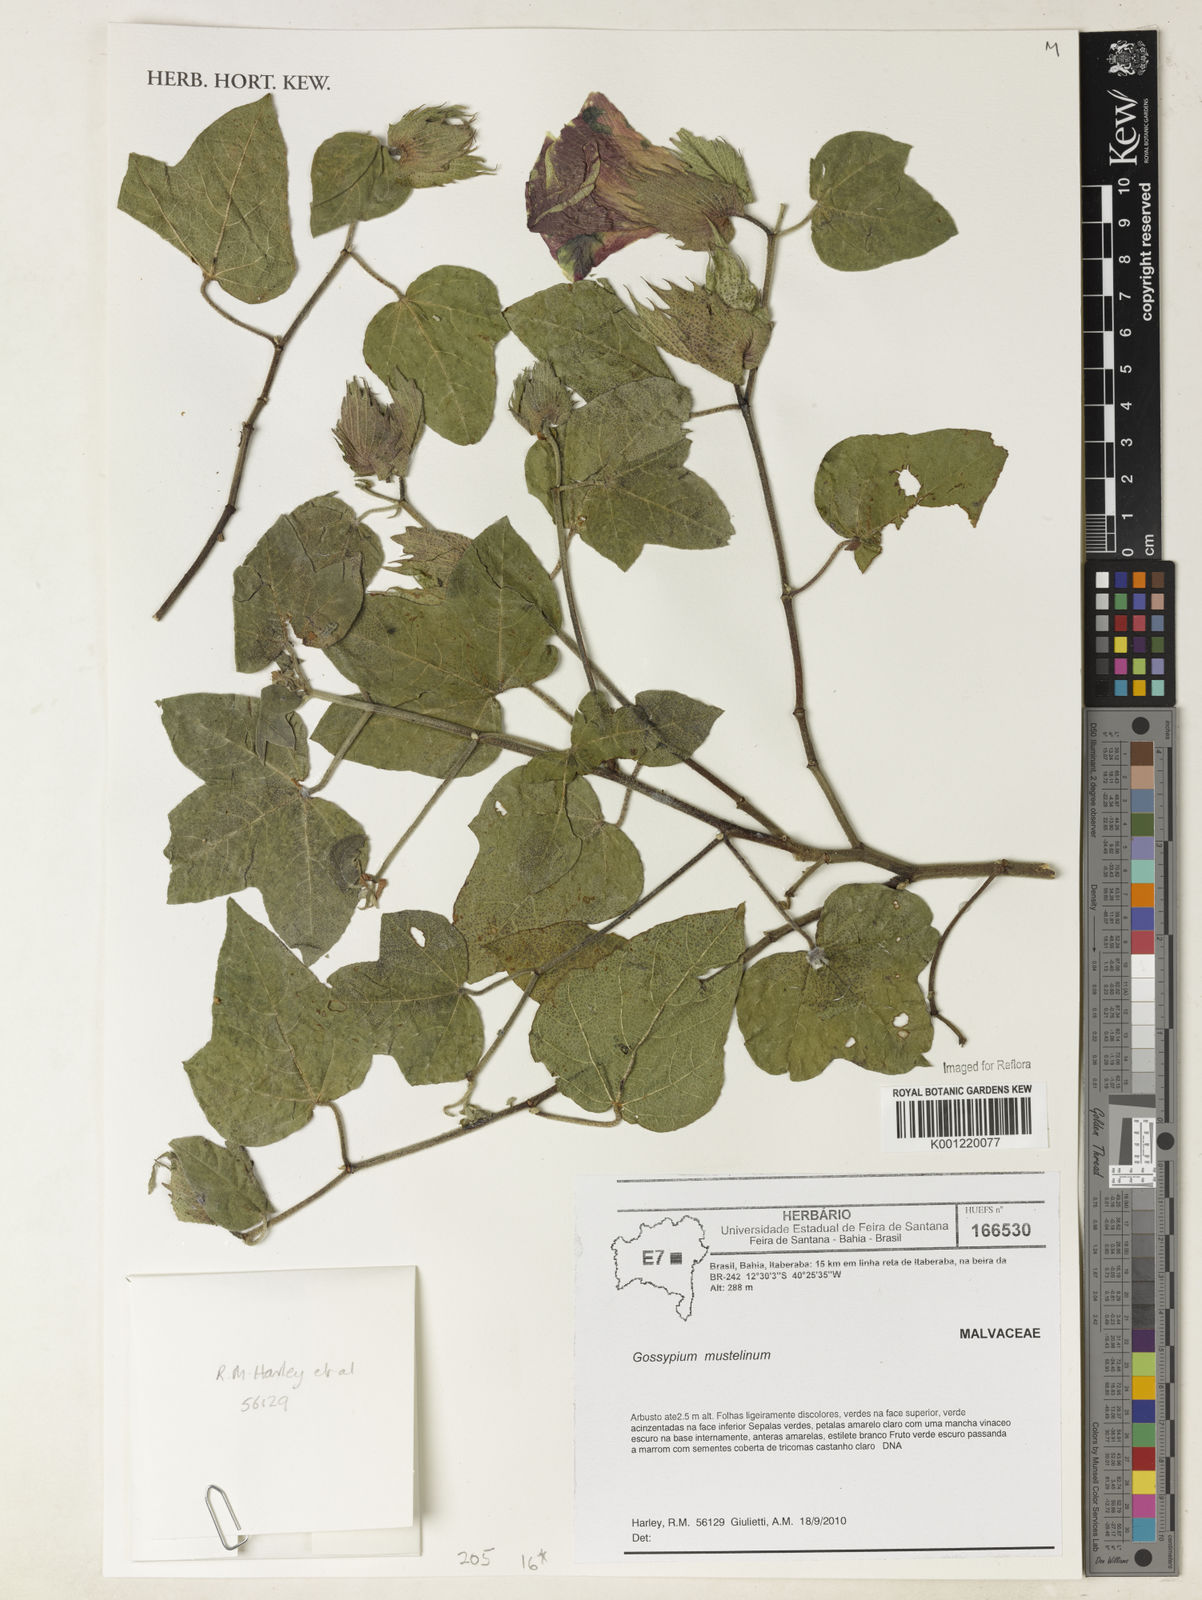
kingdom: Plantae
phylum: Tracheophyta
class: Magnoliopsida
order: Malvales
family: Malvaceae
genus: Gossypium
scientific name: Gossypium
